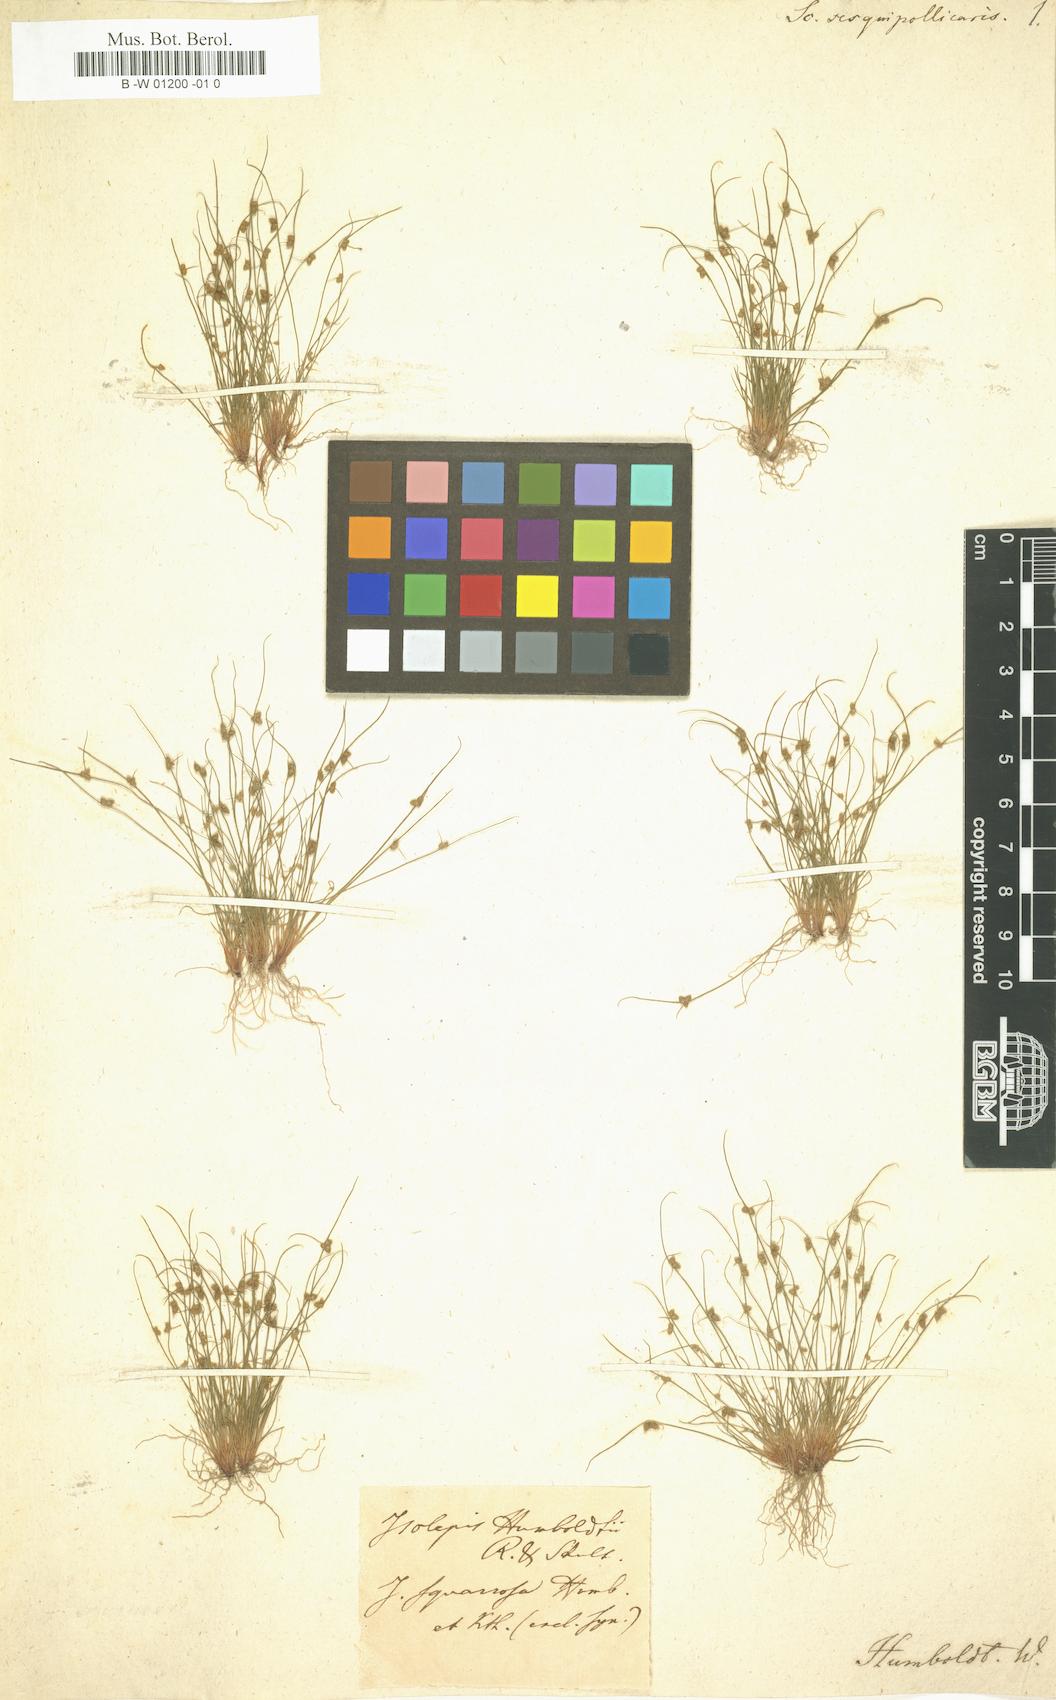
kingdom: Plantae
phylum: Tracheophyta
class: Liliopsida
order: Poales
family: Cyperaceae
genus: Cyperus
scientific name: Cyperus subsquarrosus
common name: Dwarf bulrush
